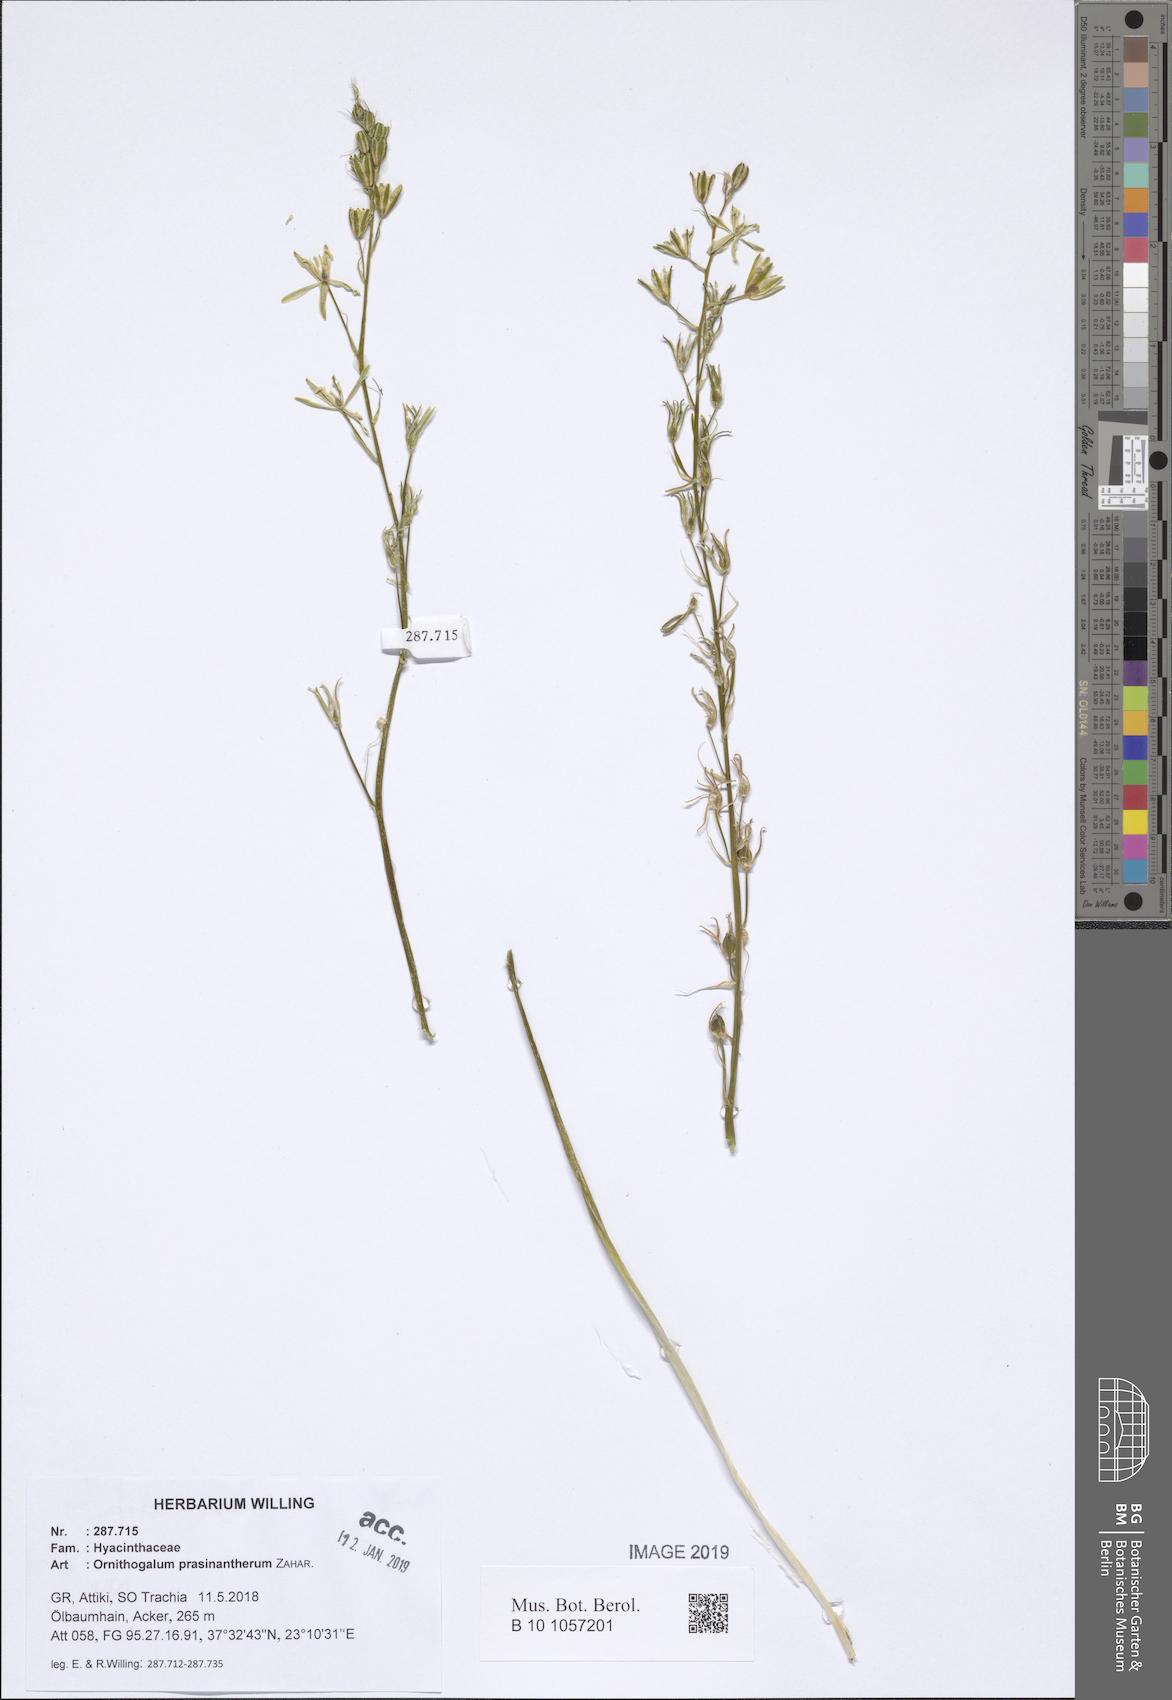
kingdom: Plantae
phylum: Tracheophyta
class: Liliopsida
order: Asparagales
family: Asparagaceae
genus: Ornithogalum
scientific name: Ornithogalum prasinantherum
